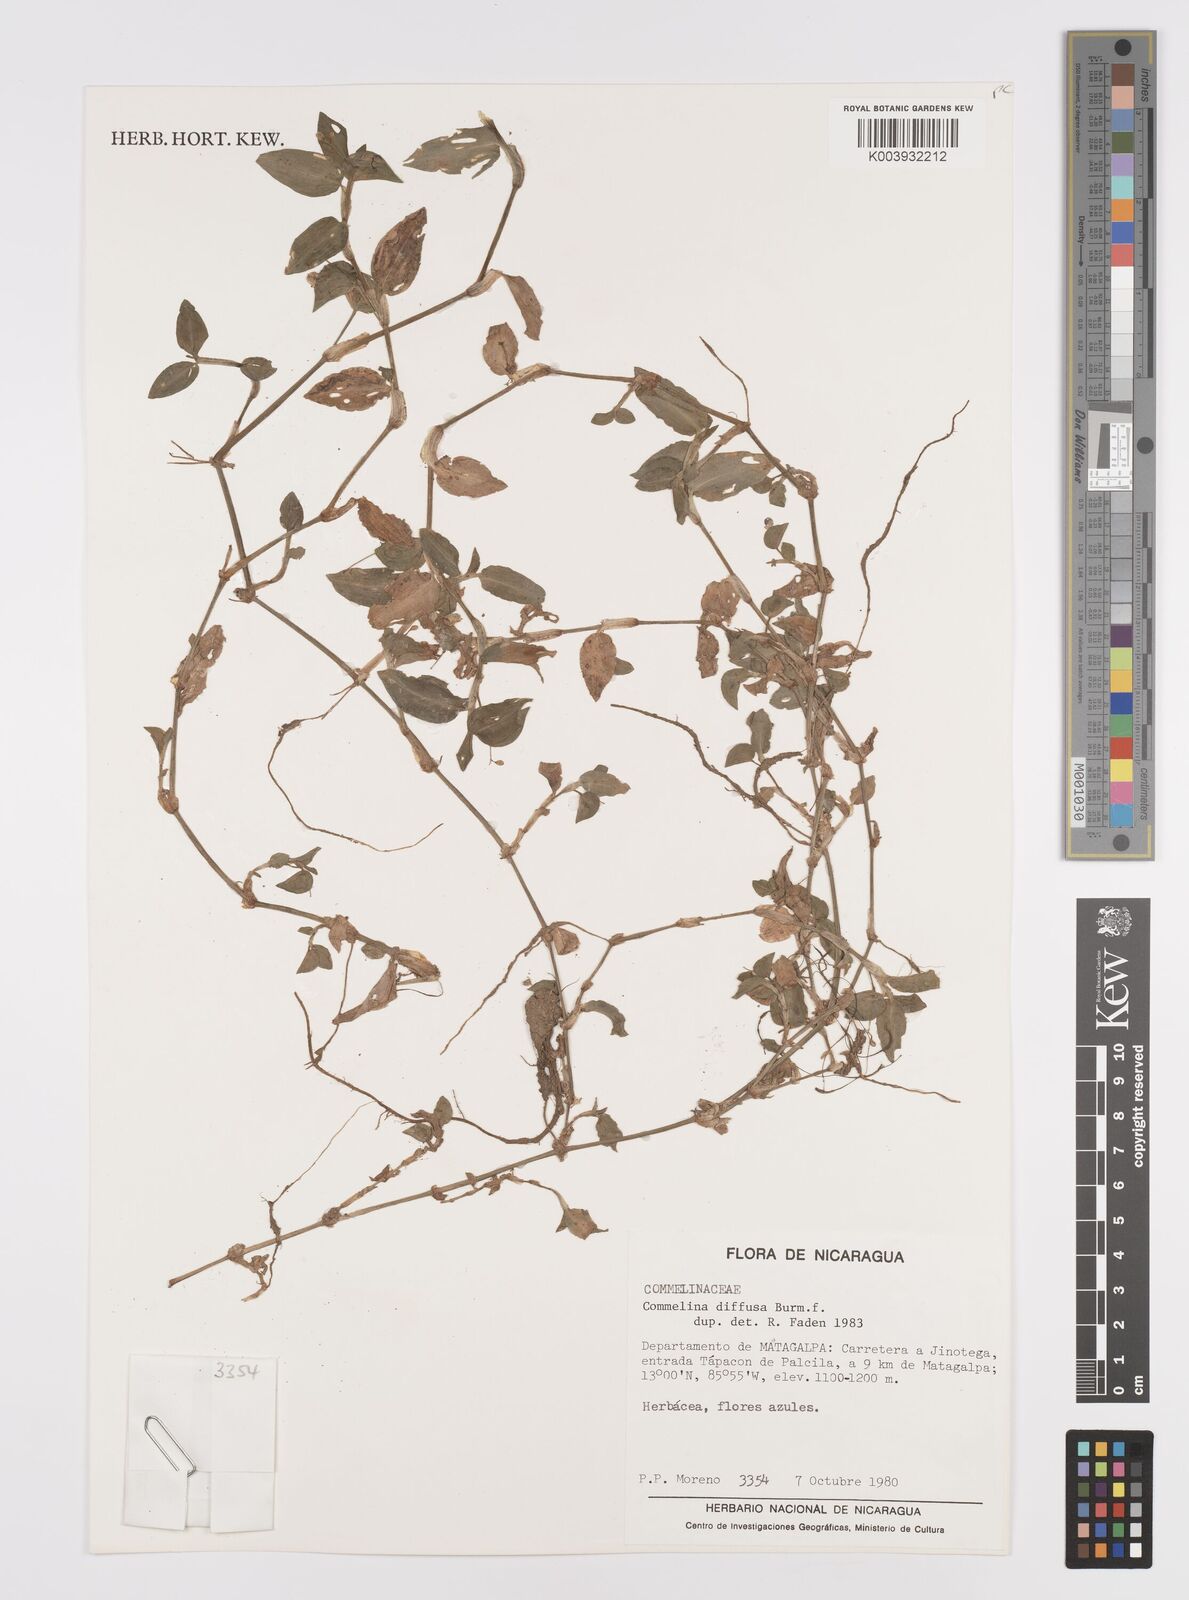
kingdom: Plantae
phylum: Tracheophyta
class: Liliopsida
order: Commelinales
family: Commelinaceae
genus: Commelina
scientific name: Commelina diffusa
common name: Climbing dayflower
